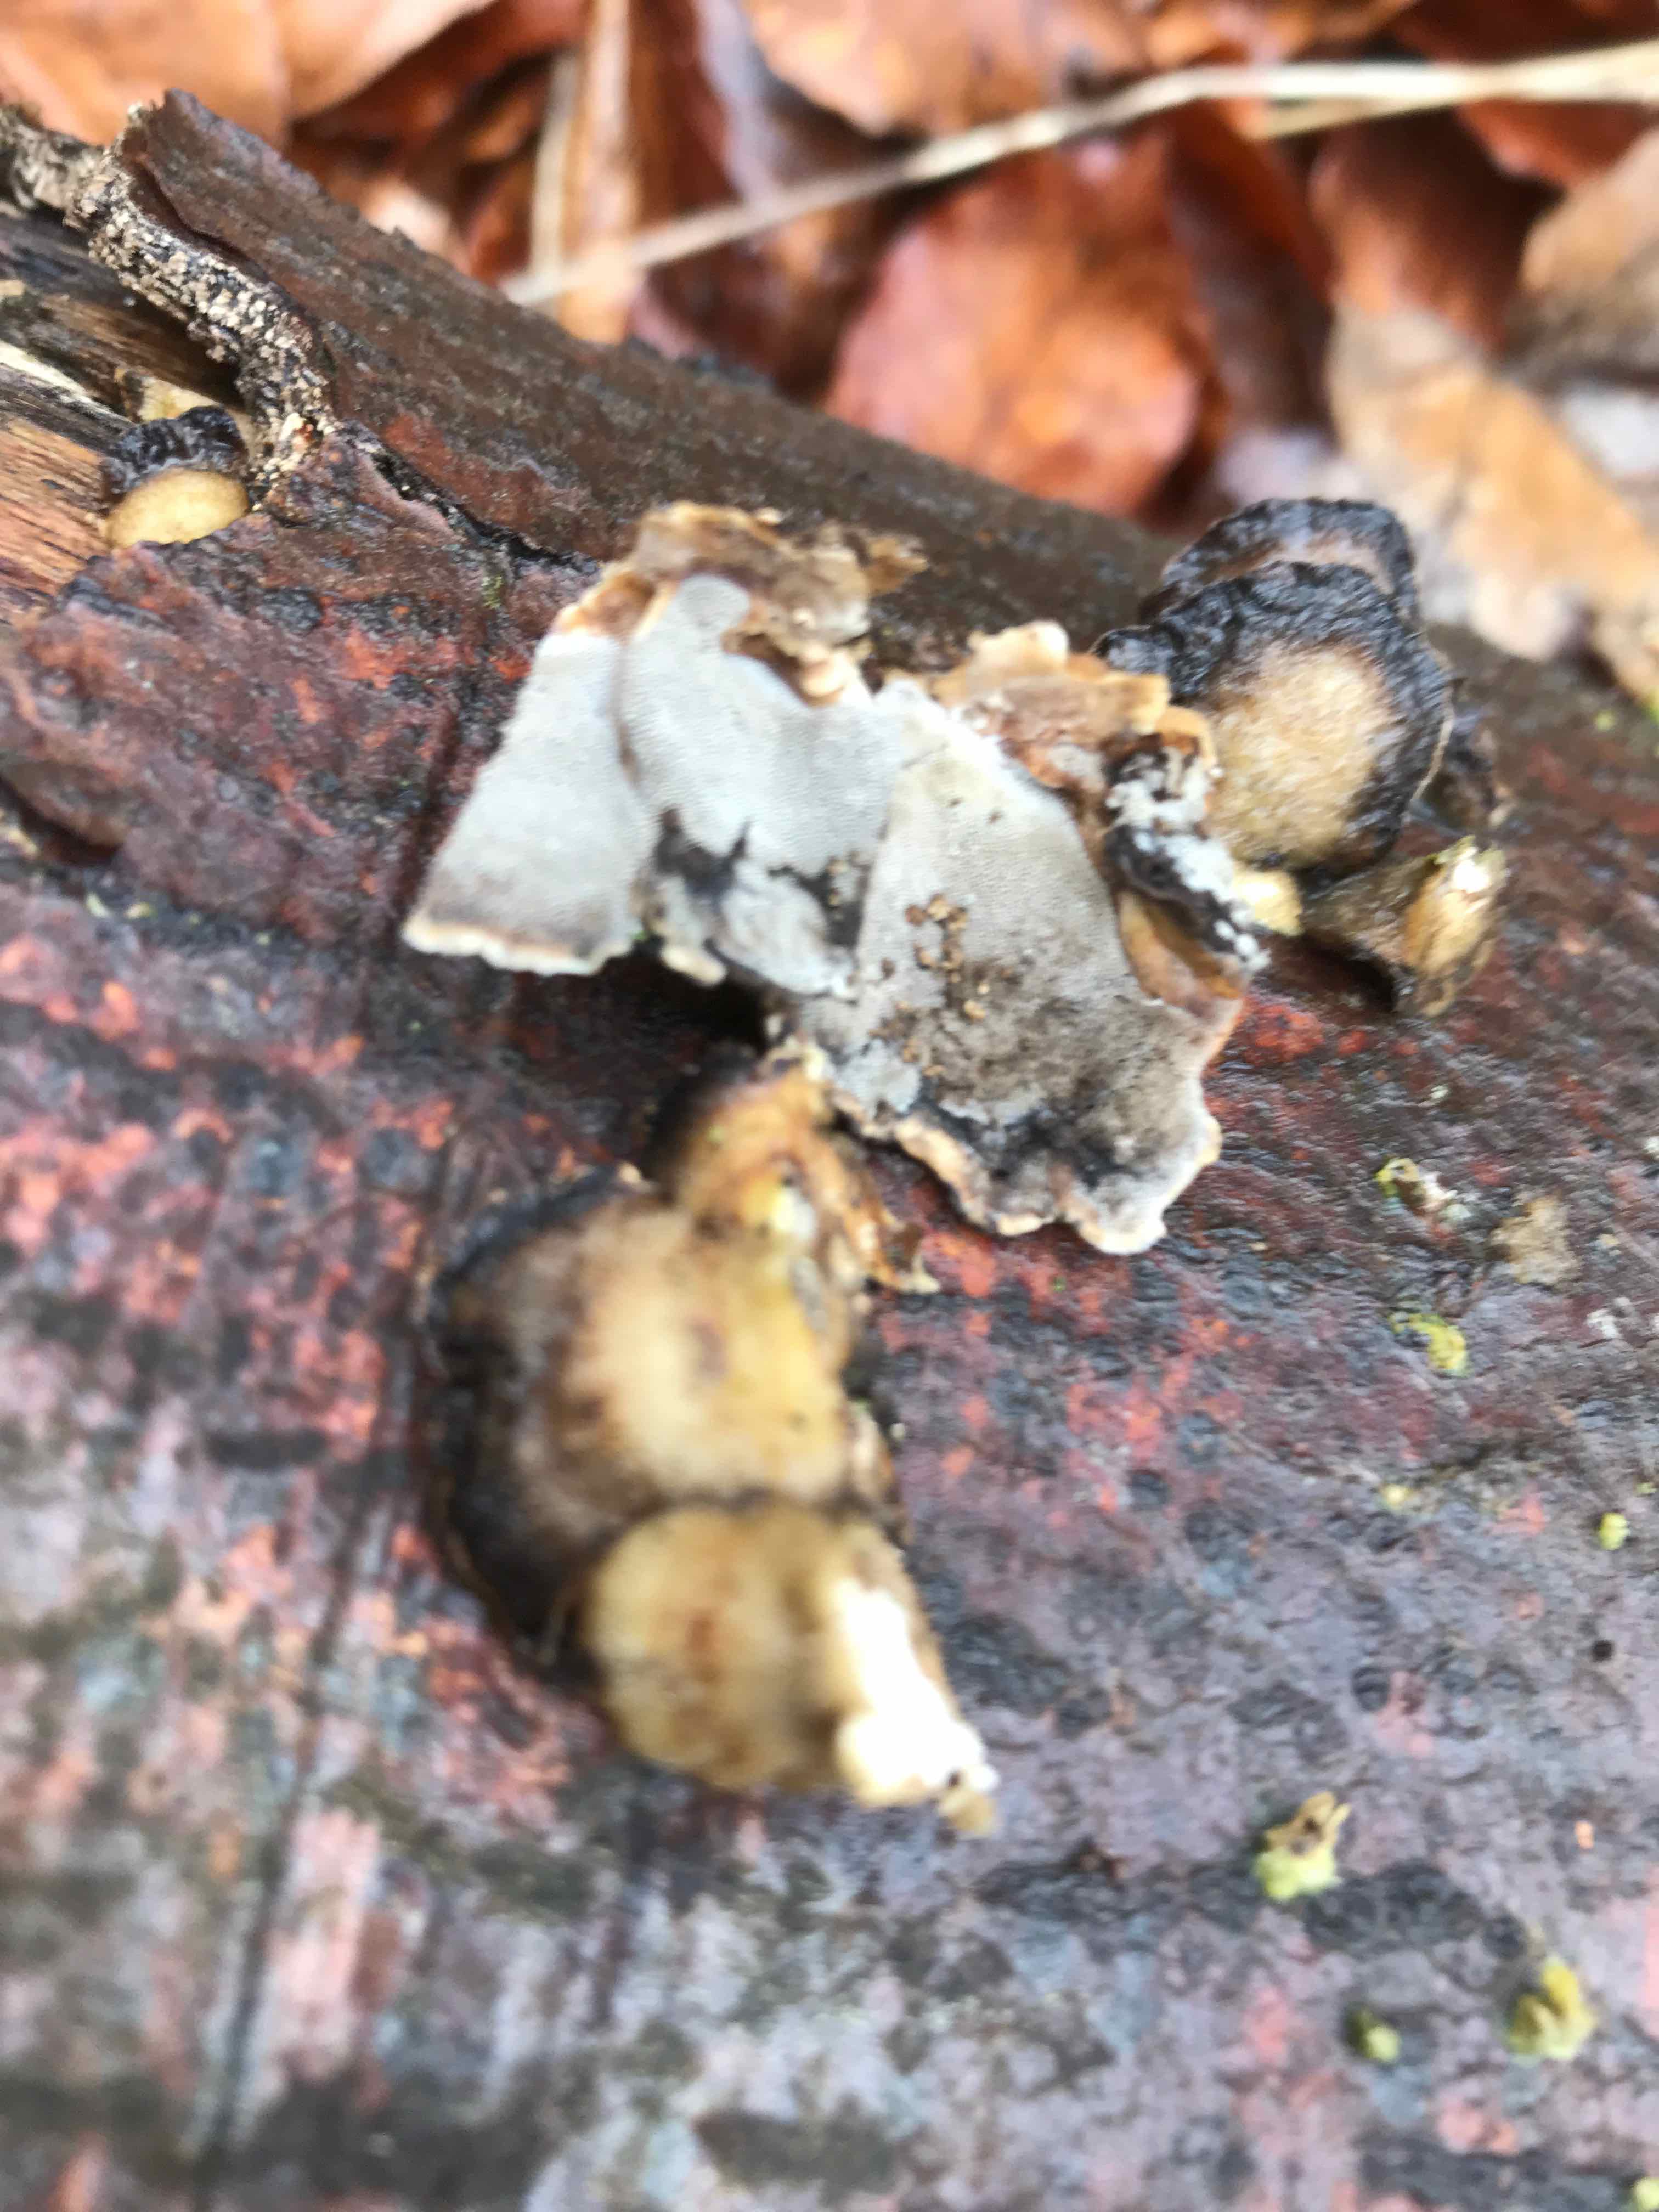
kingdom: Fungi
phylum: Basidiomycota
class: Agaricomycetes
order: Polyporales
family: Phanerochaetaceae
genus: Bjerkandera
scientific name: Bjerkandera adusta
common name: sveden sodporesvamp
